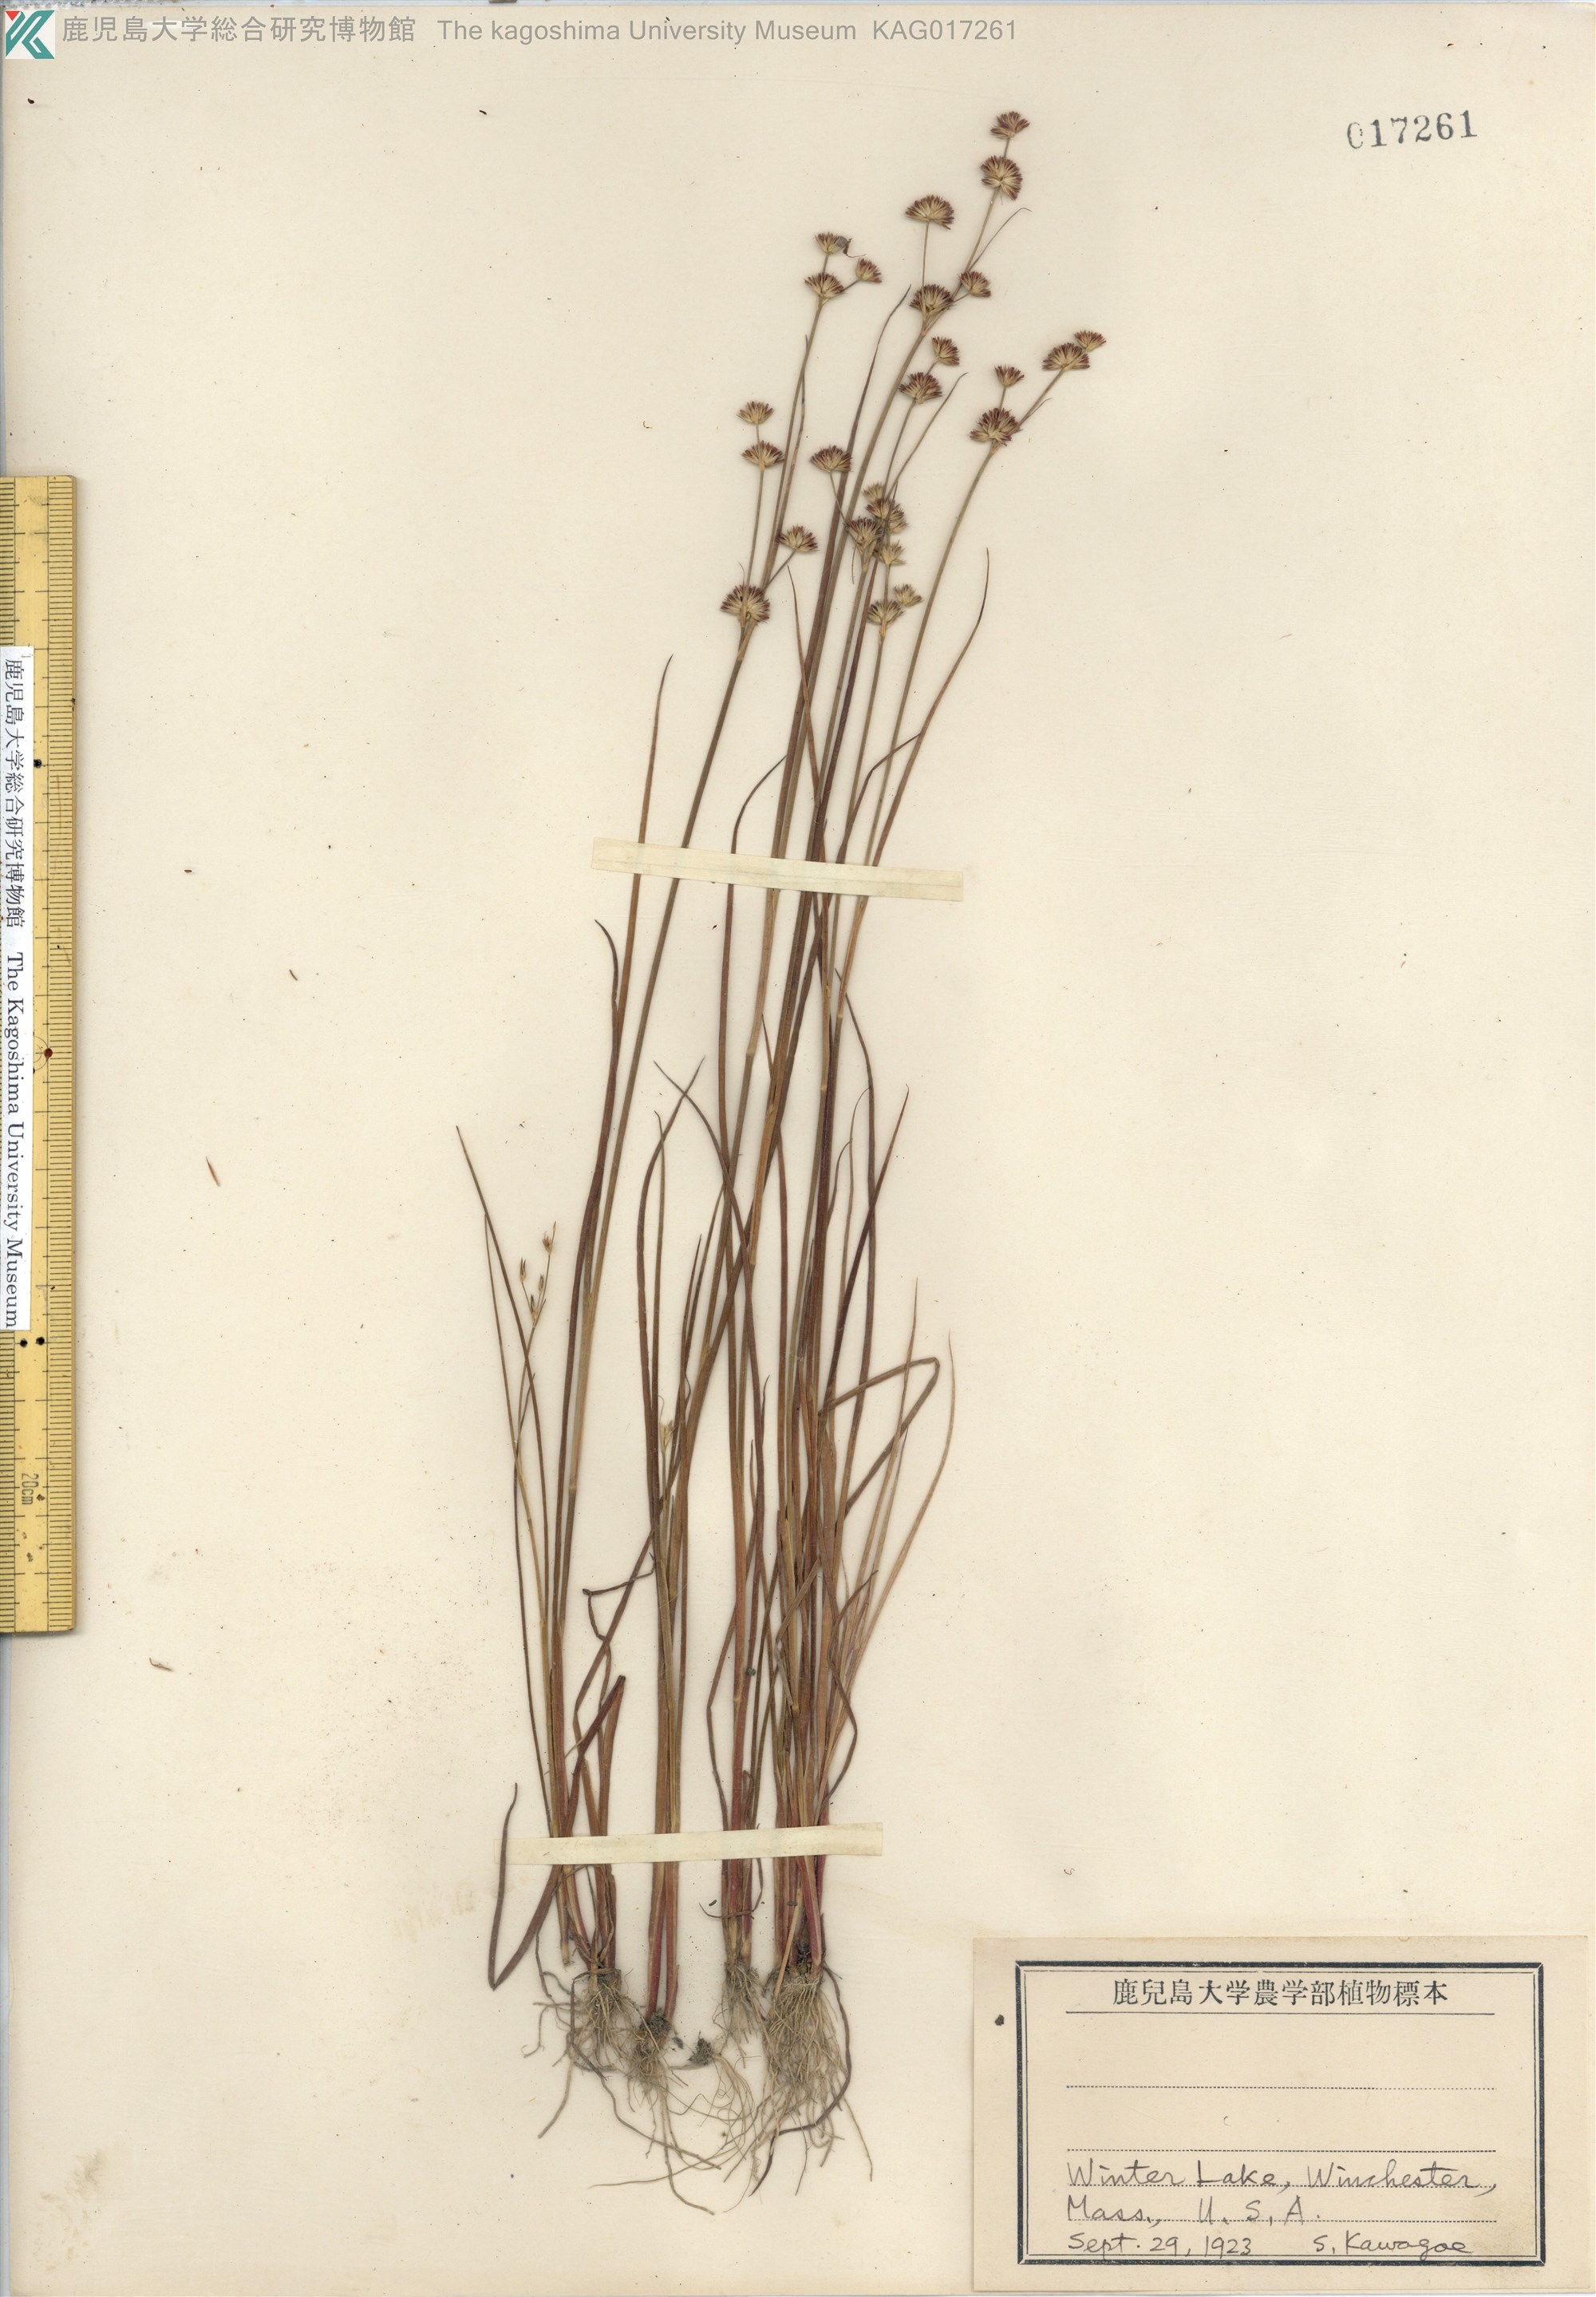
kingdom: Plantae
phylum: Tracheophyta
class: Liliopsida
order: Poales
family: Juncaceae
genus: Juncus
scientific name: Juncus
